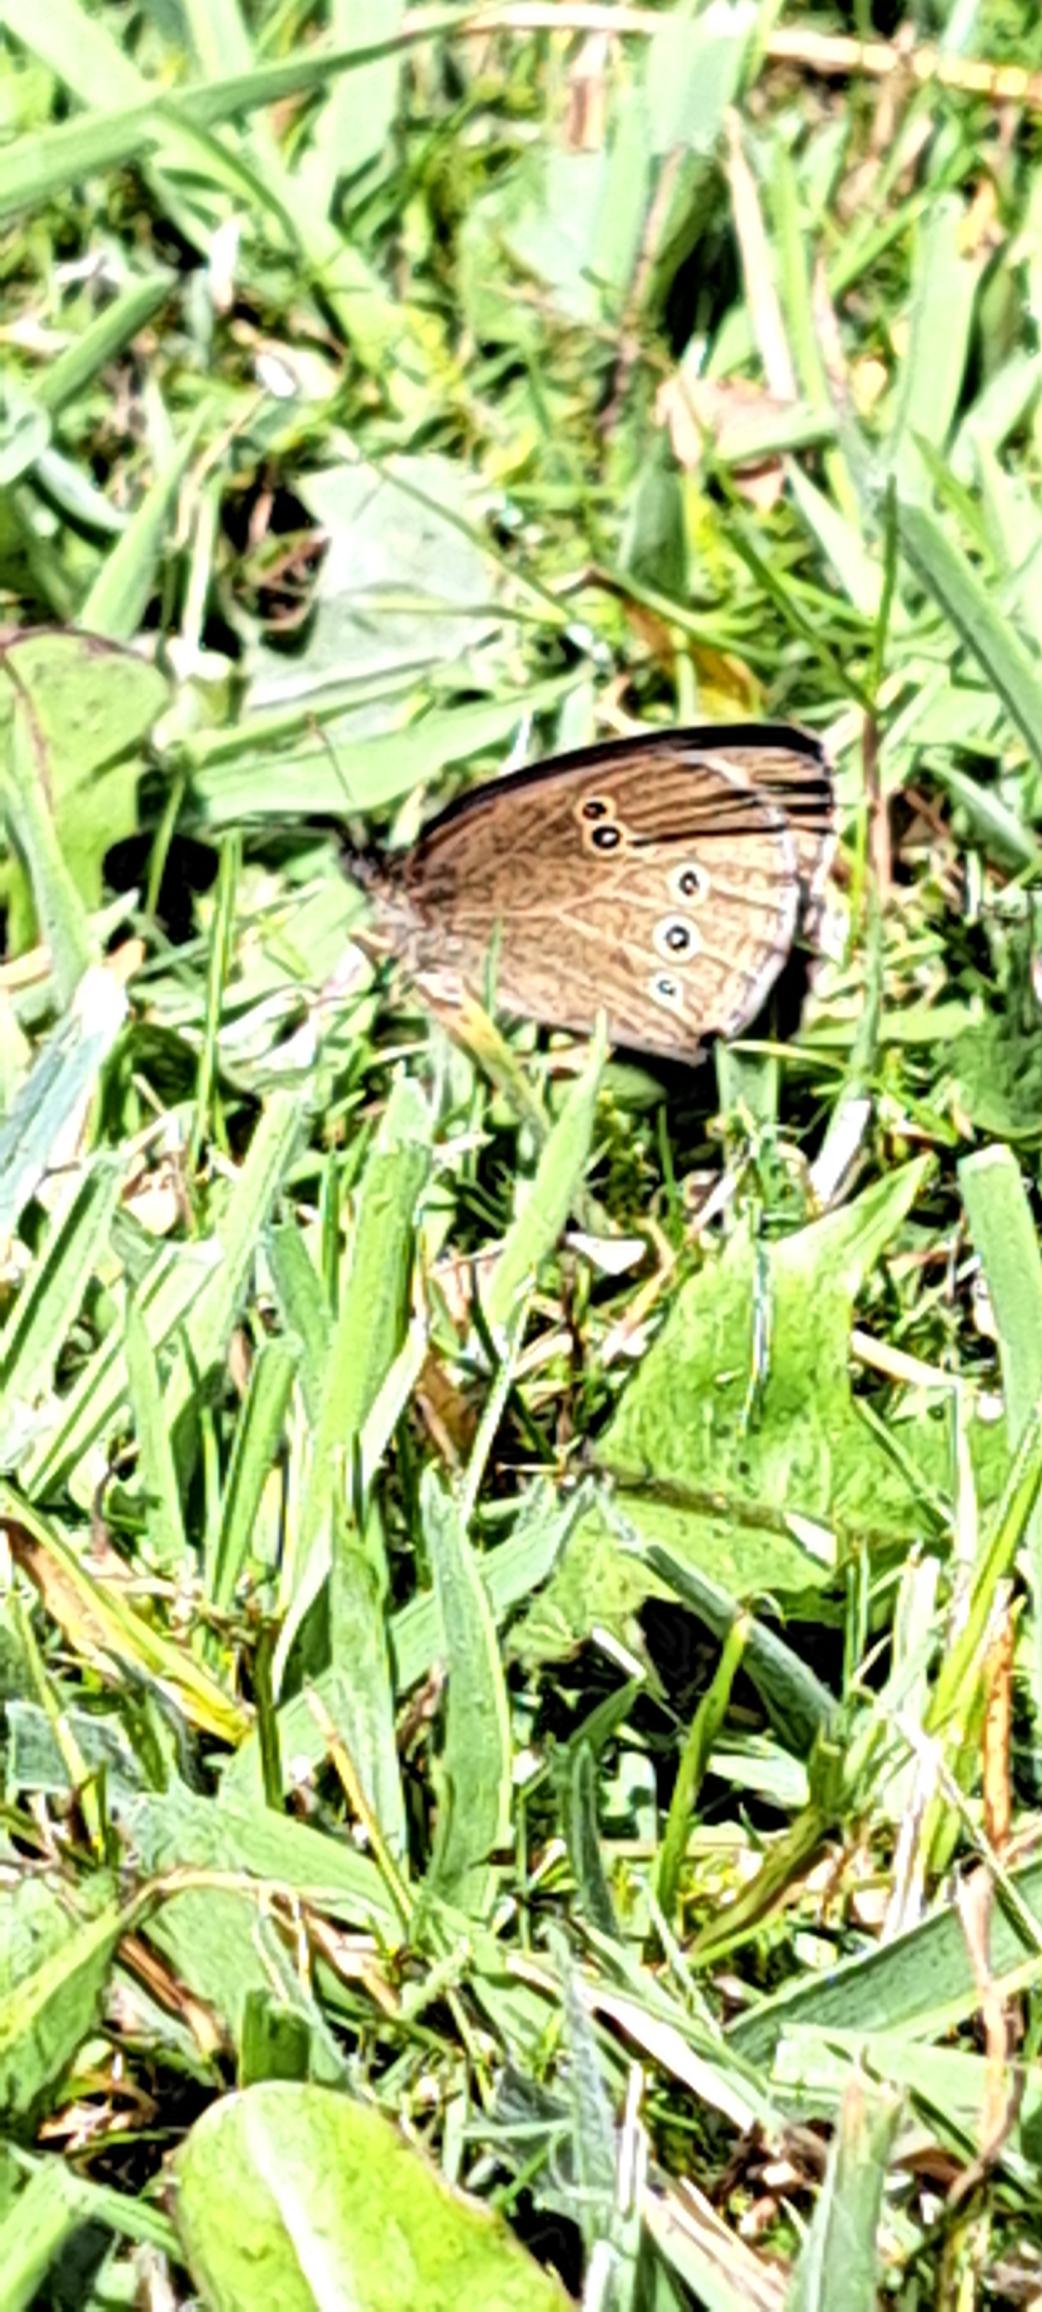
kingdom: Animalia
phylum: Arthropoda
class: Insecta
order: Lepidoptera
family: Nymphalidae
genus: Aphantopus
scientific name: Aphantopus hyperantus
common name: Engrandøje
